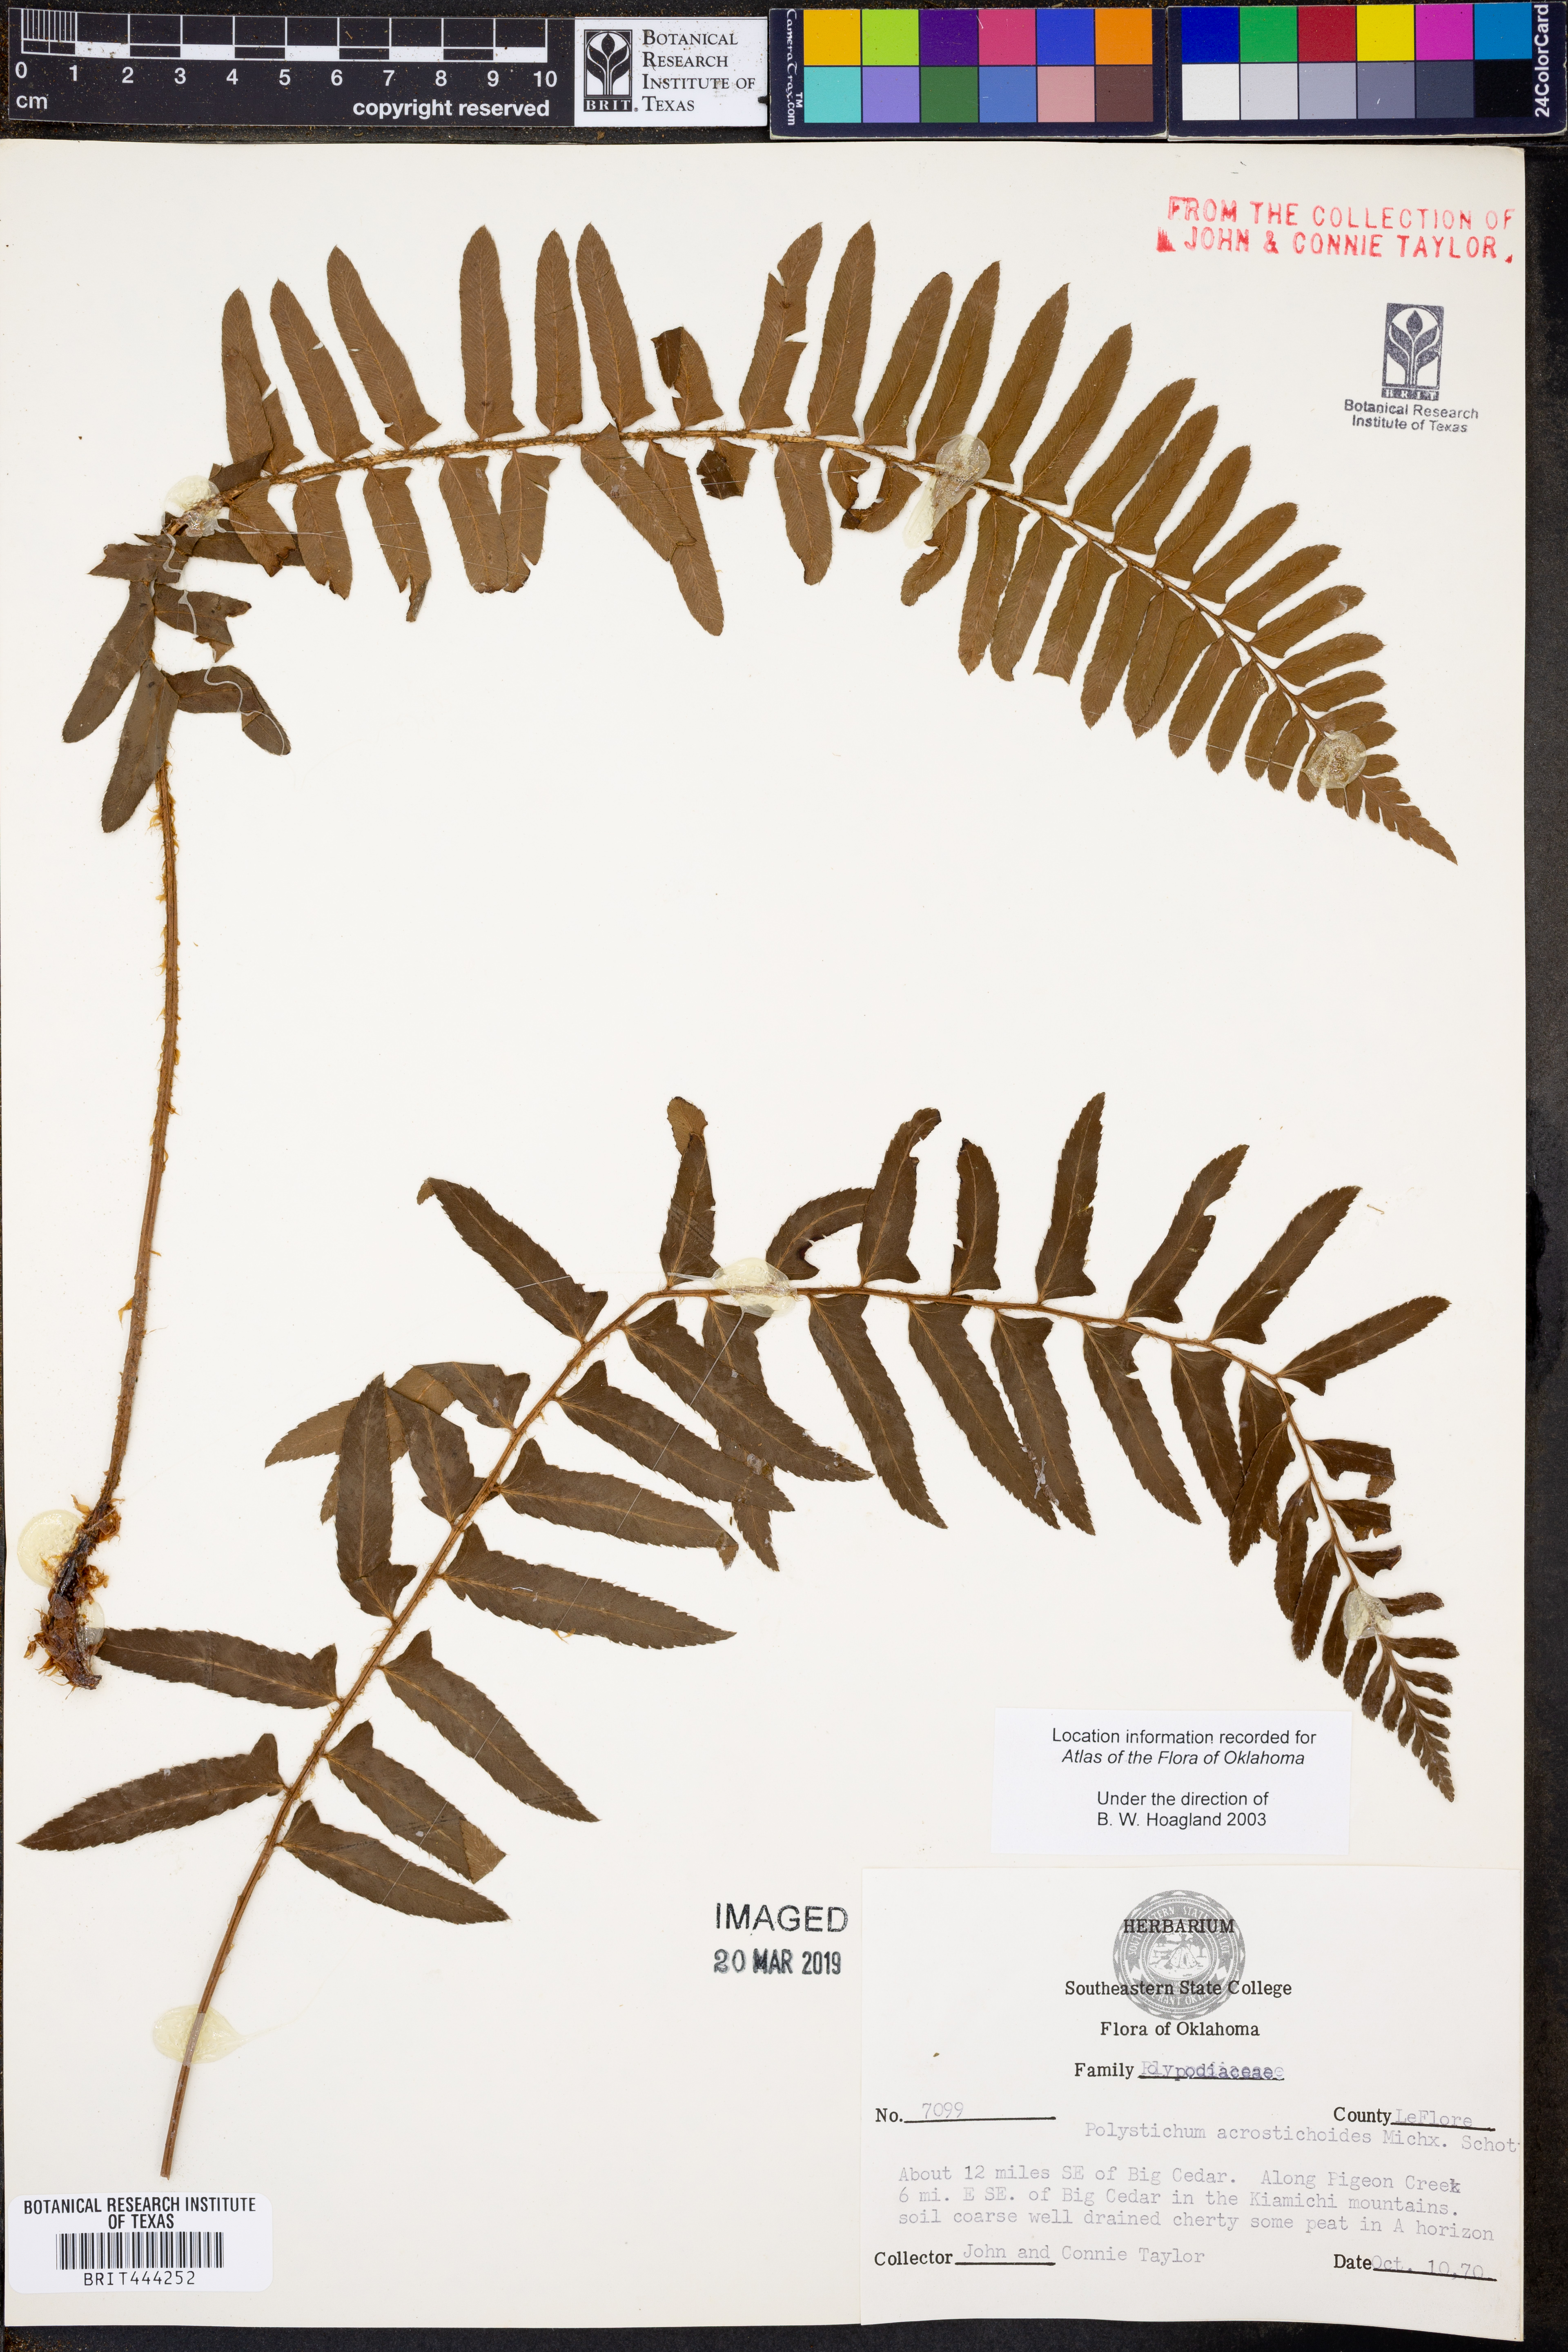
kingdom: Plantae
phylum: Tracheophyta
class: Polypodiopsida
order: Polypodiales
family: Dryopteridaceae
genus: Polystichum
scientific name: Polystichum acrostichoides
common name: Christmas fern
